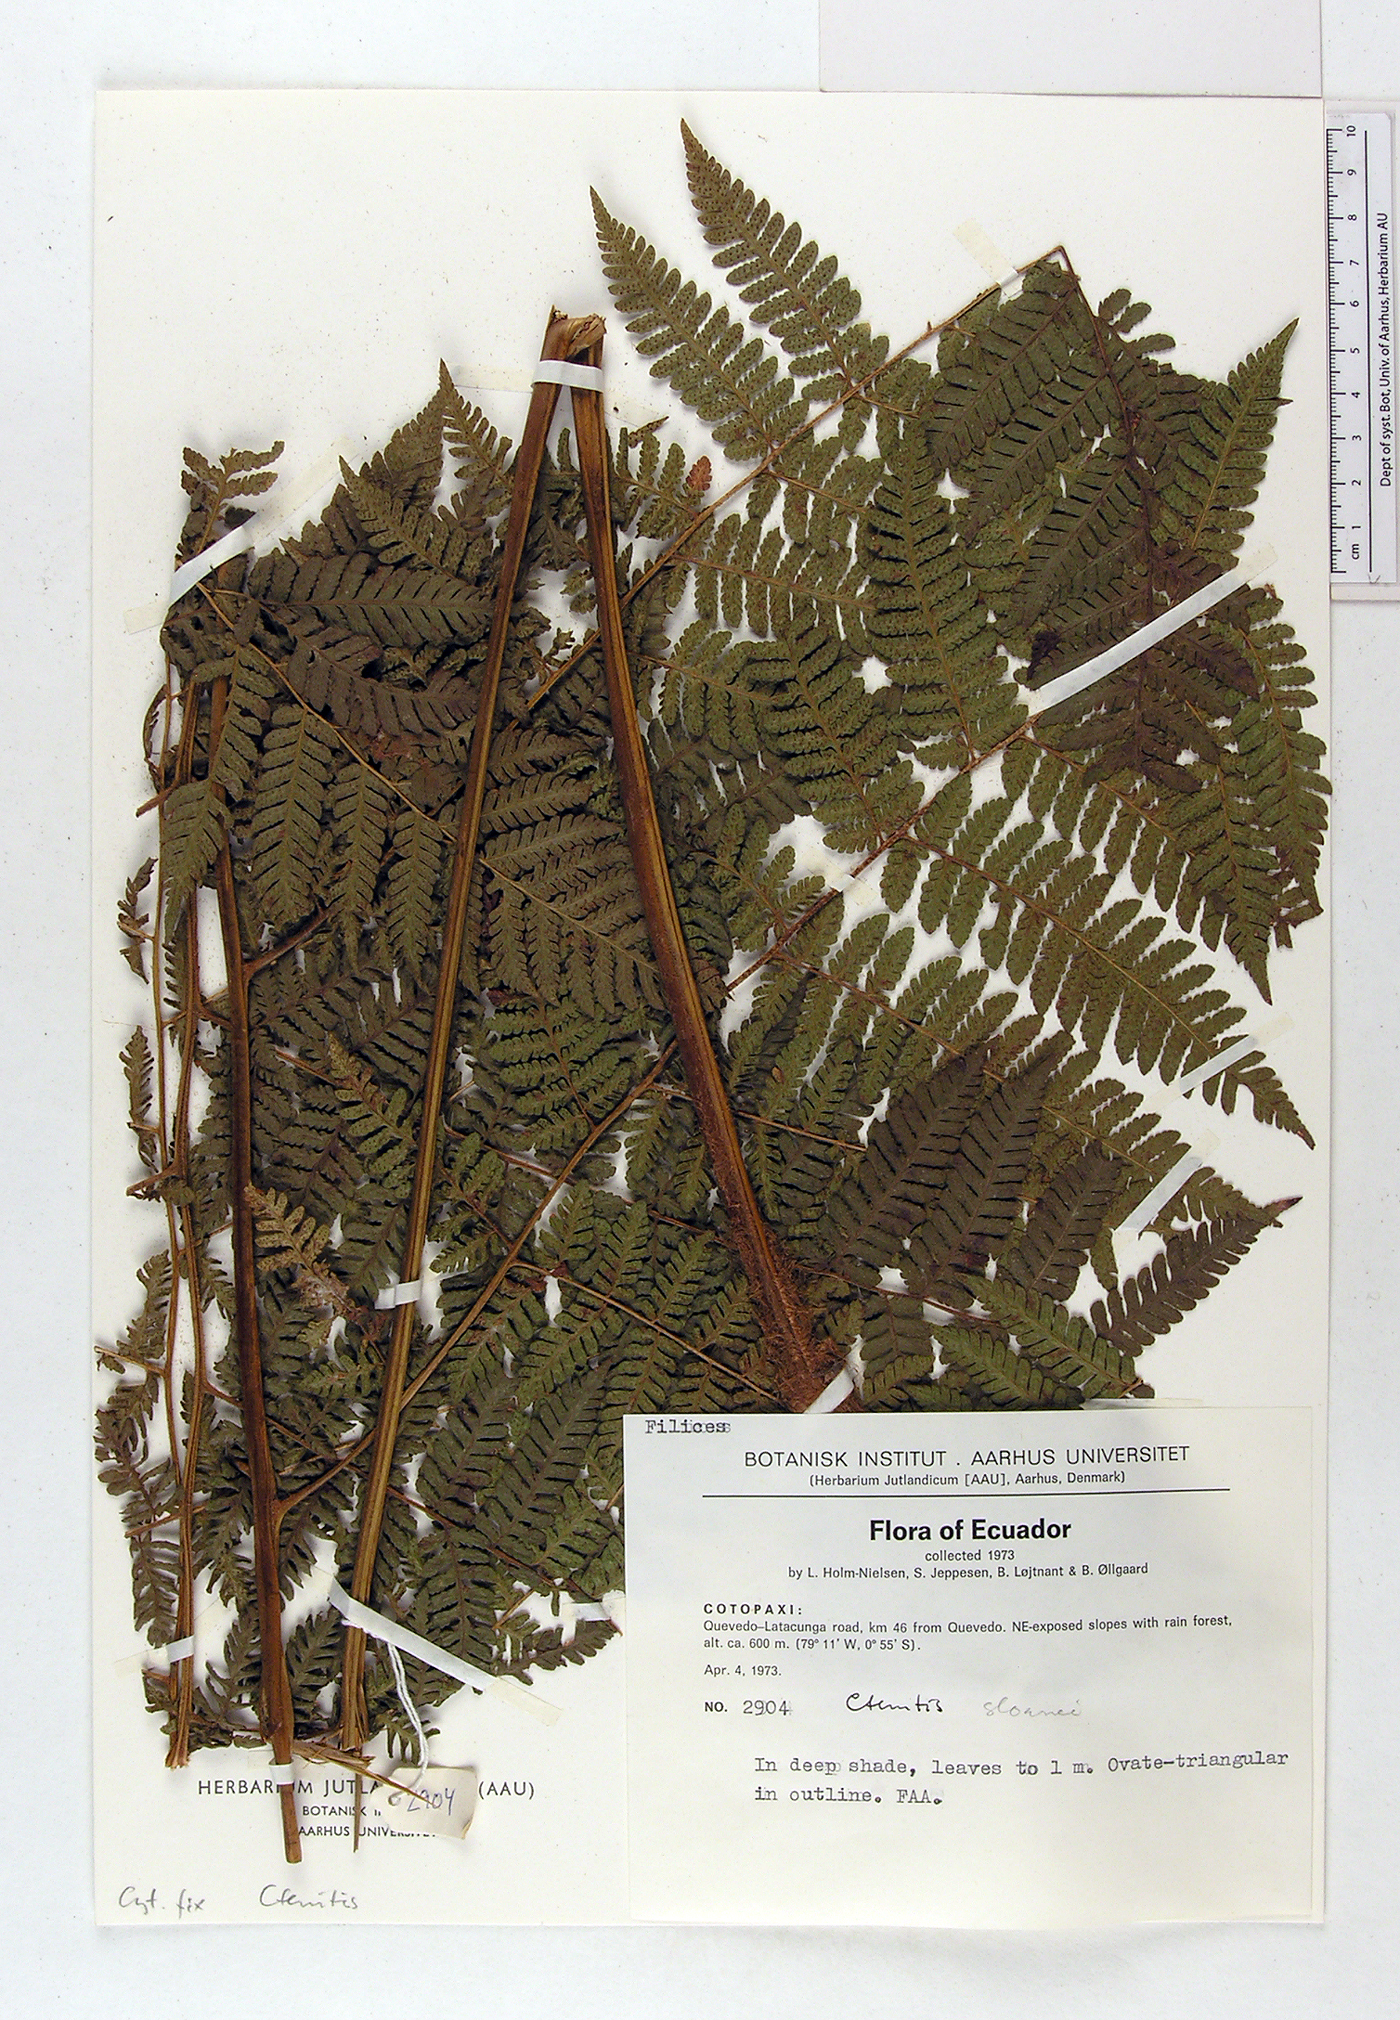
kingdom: Plantae
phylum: Tracheophyta
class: Polypodiopsida
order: Polypodiales
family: Dryopteridaceae
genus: Ctenitis
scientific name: Ctenitis sloanei
